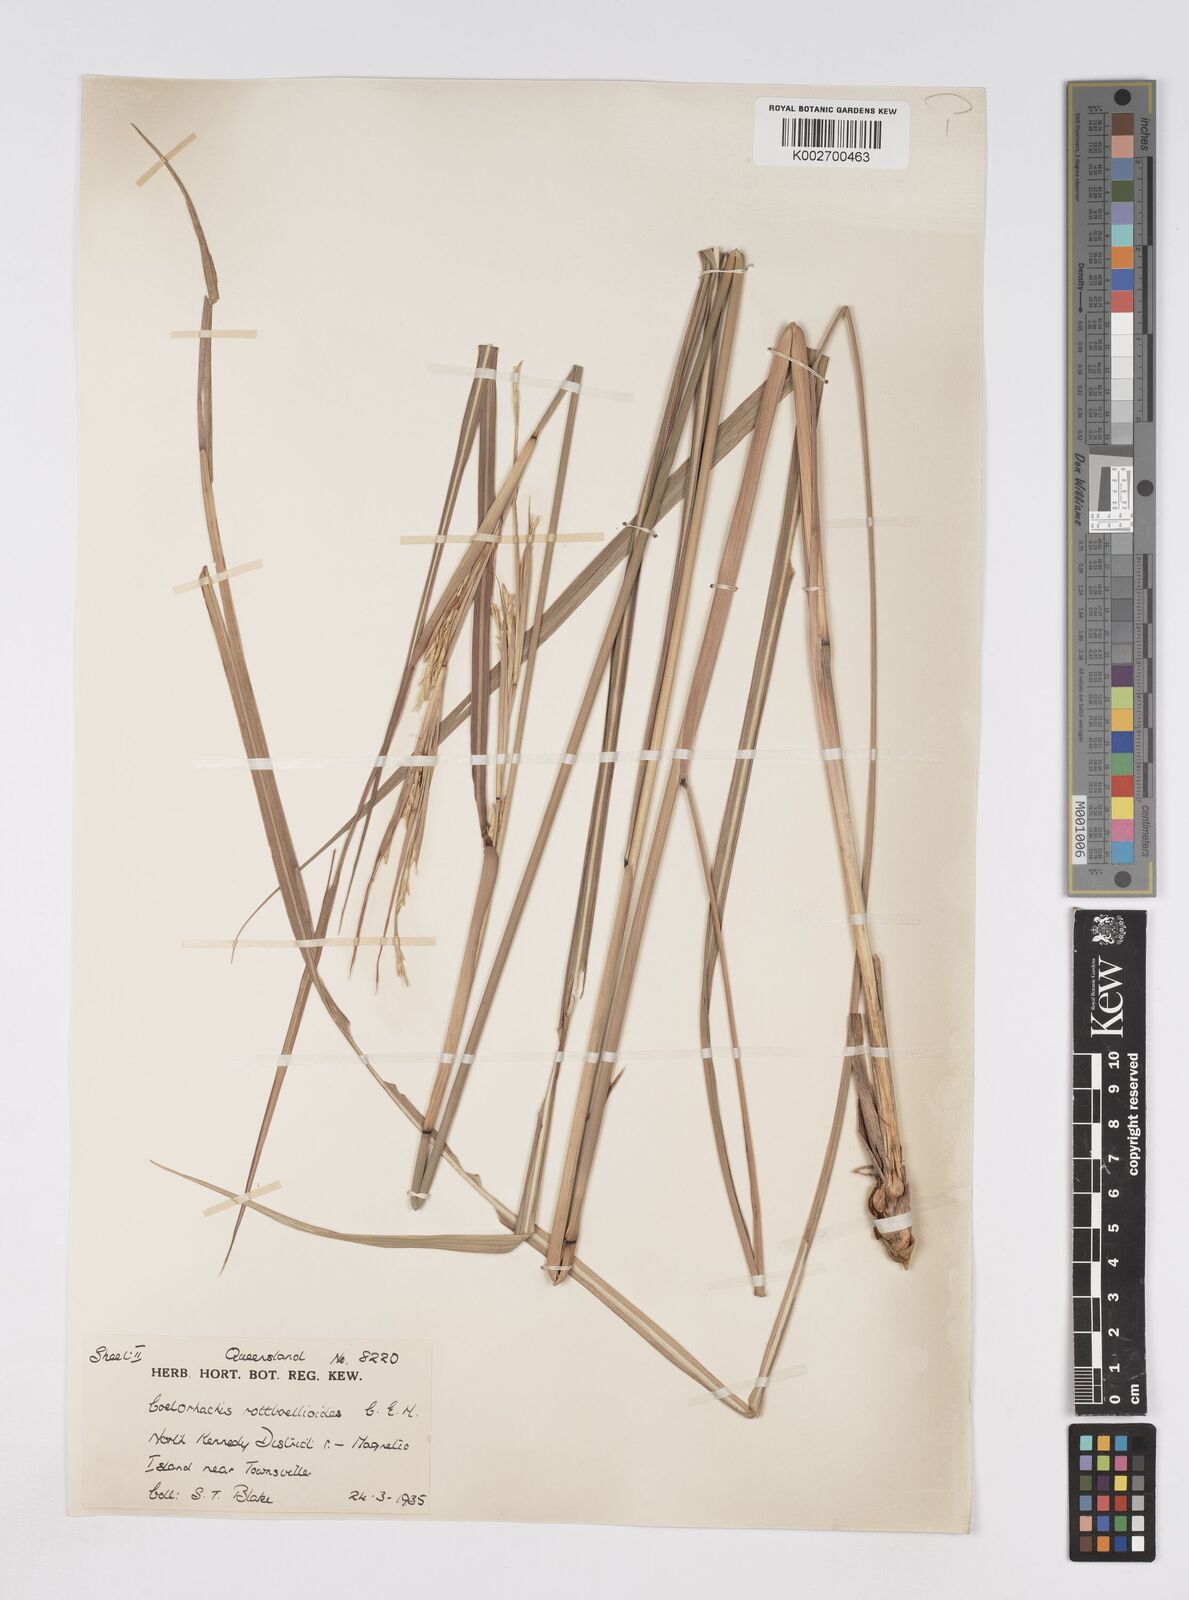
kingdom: Plantae
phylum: Tracheophyta
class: Liliopsida
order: Poales
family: Poaceae
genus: Rottboellia
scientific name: Rottboellia rottboellioides
